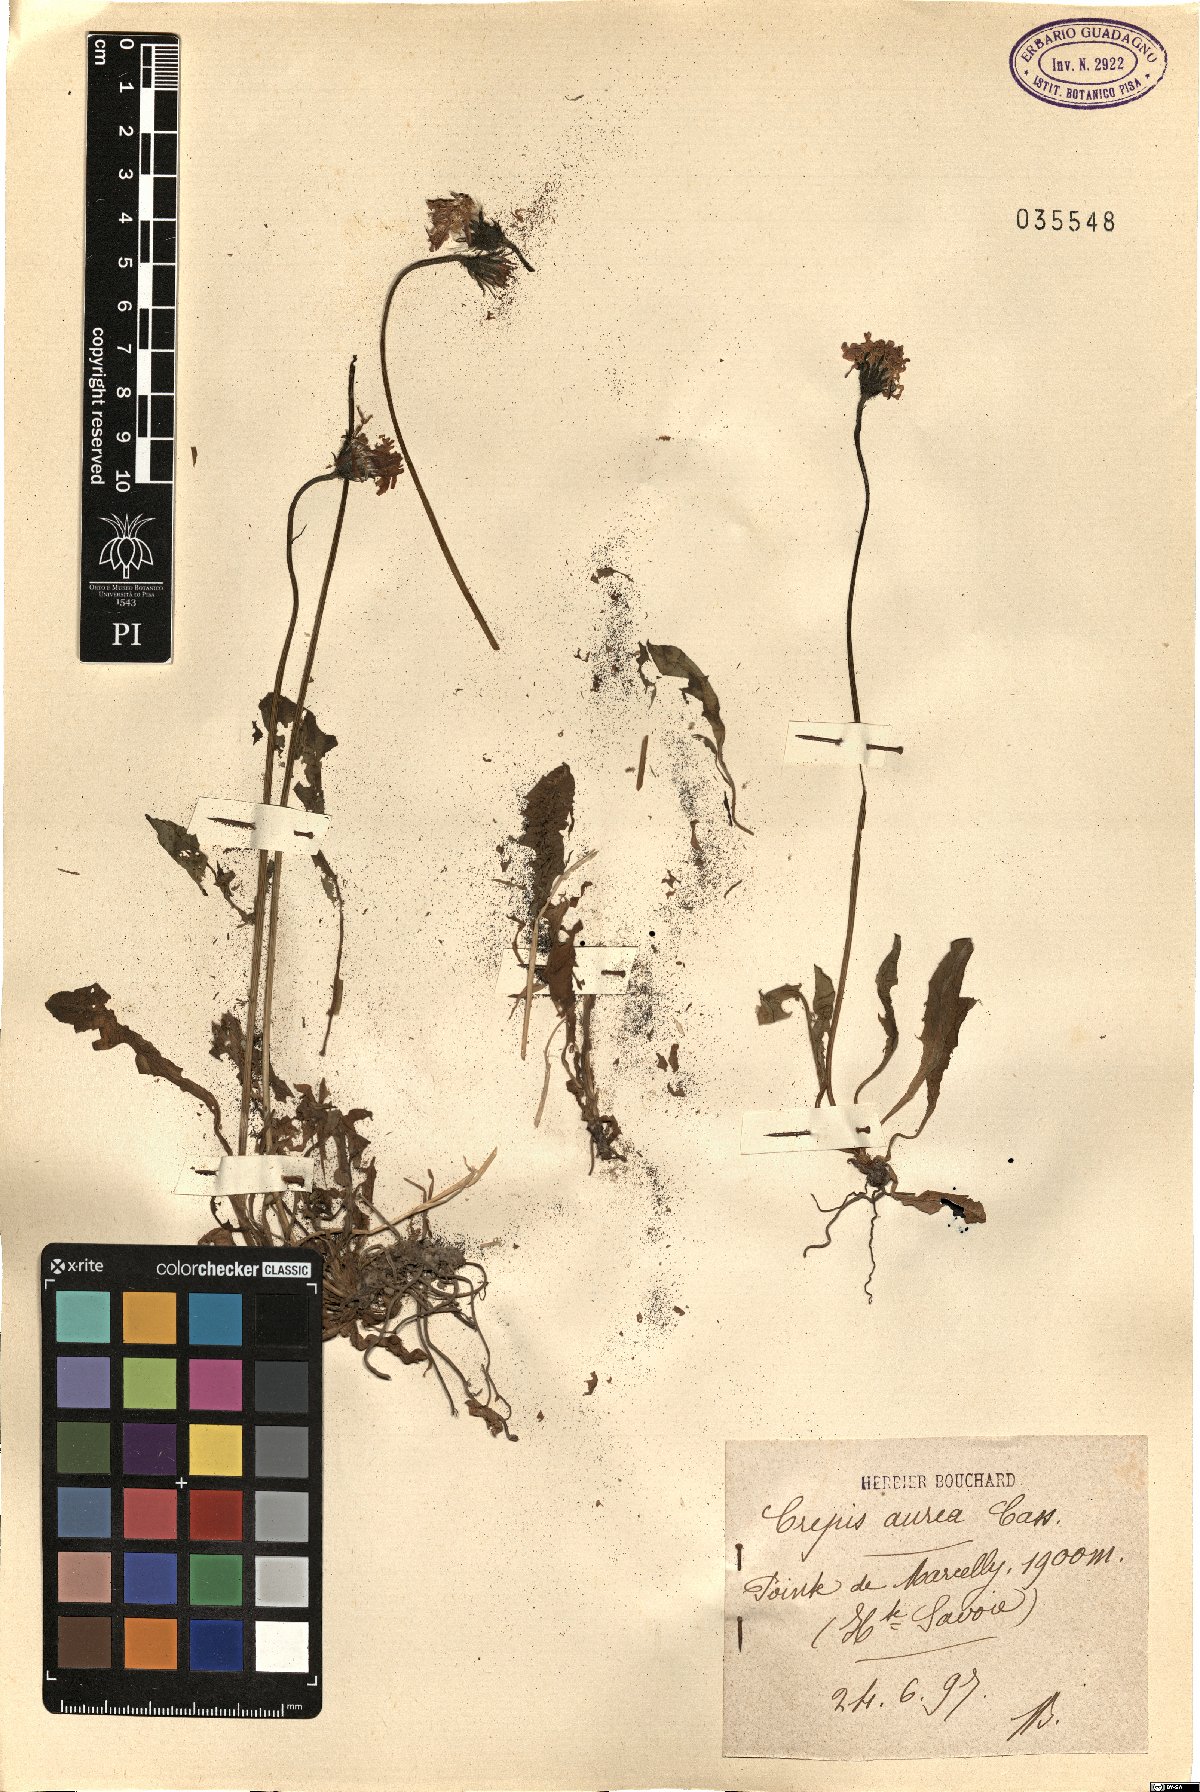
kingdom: Plantae
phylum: Tracheophyta
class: Magnoliopsida
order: Asterales
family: Asteraceae
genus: Crepis
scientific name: Crepis aurea
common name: Golden hawk's-beard
